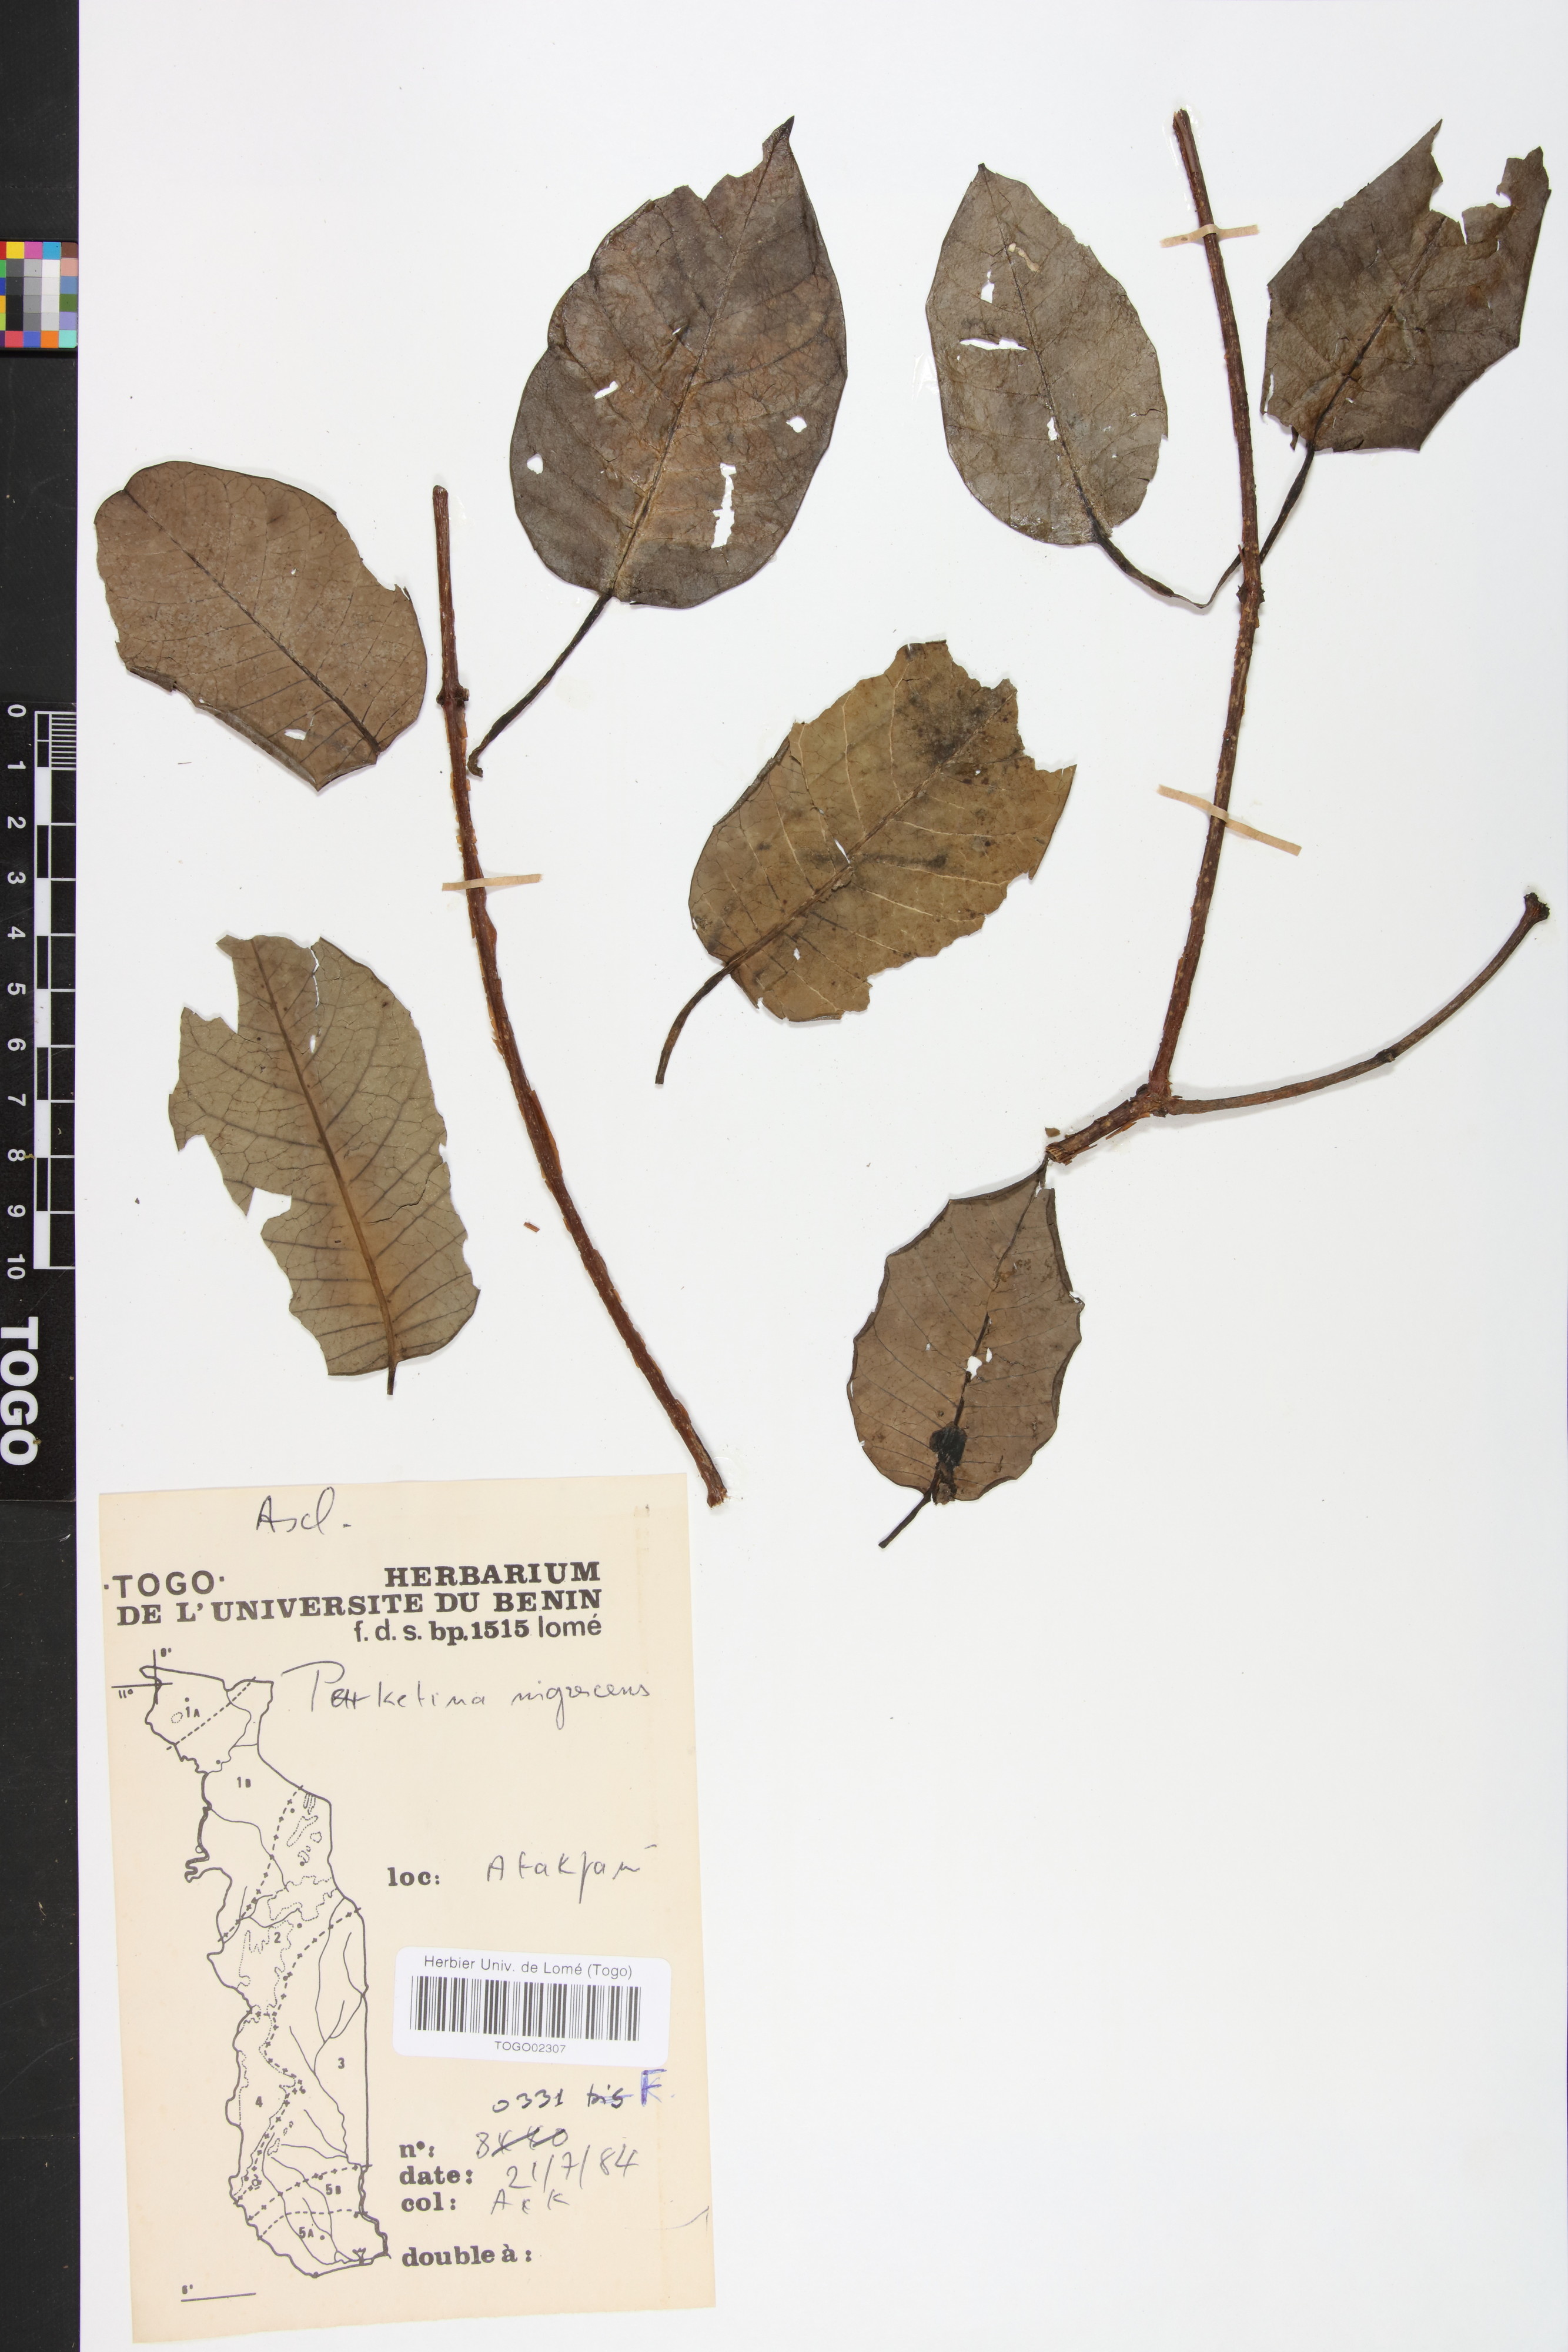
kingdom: Plantae
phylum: Tracheophyta
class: Magnoliopsida
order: Gentianales
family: Apocynaceae
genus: Cryptolepis
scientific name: Cryptolepis nigrescens
